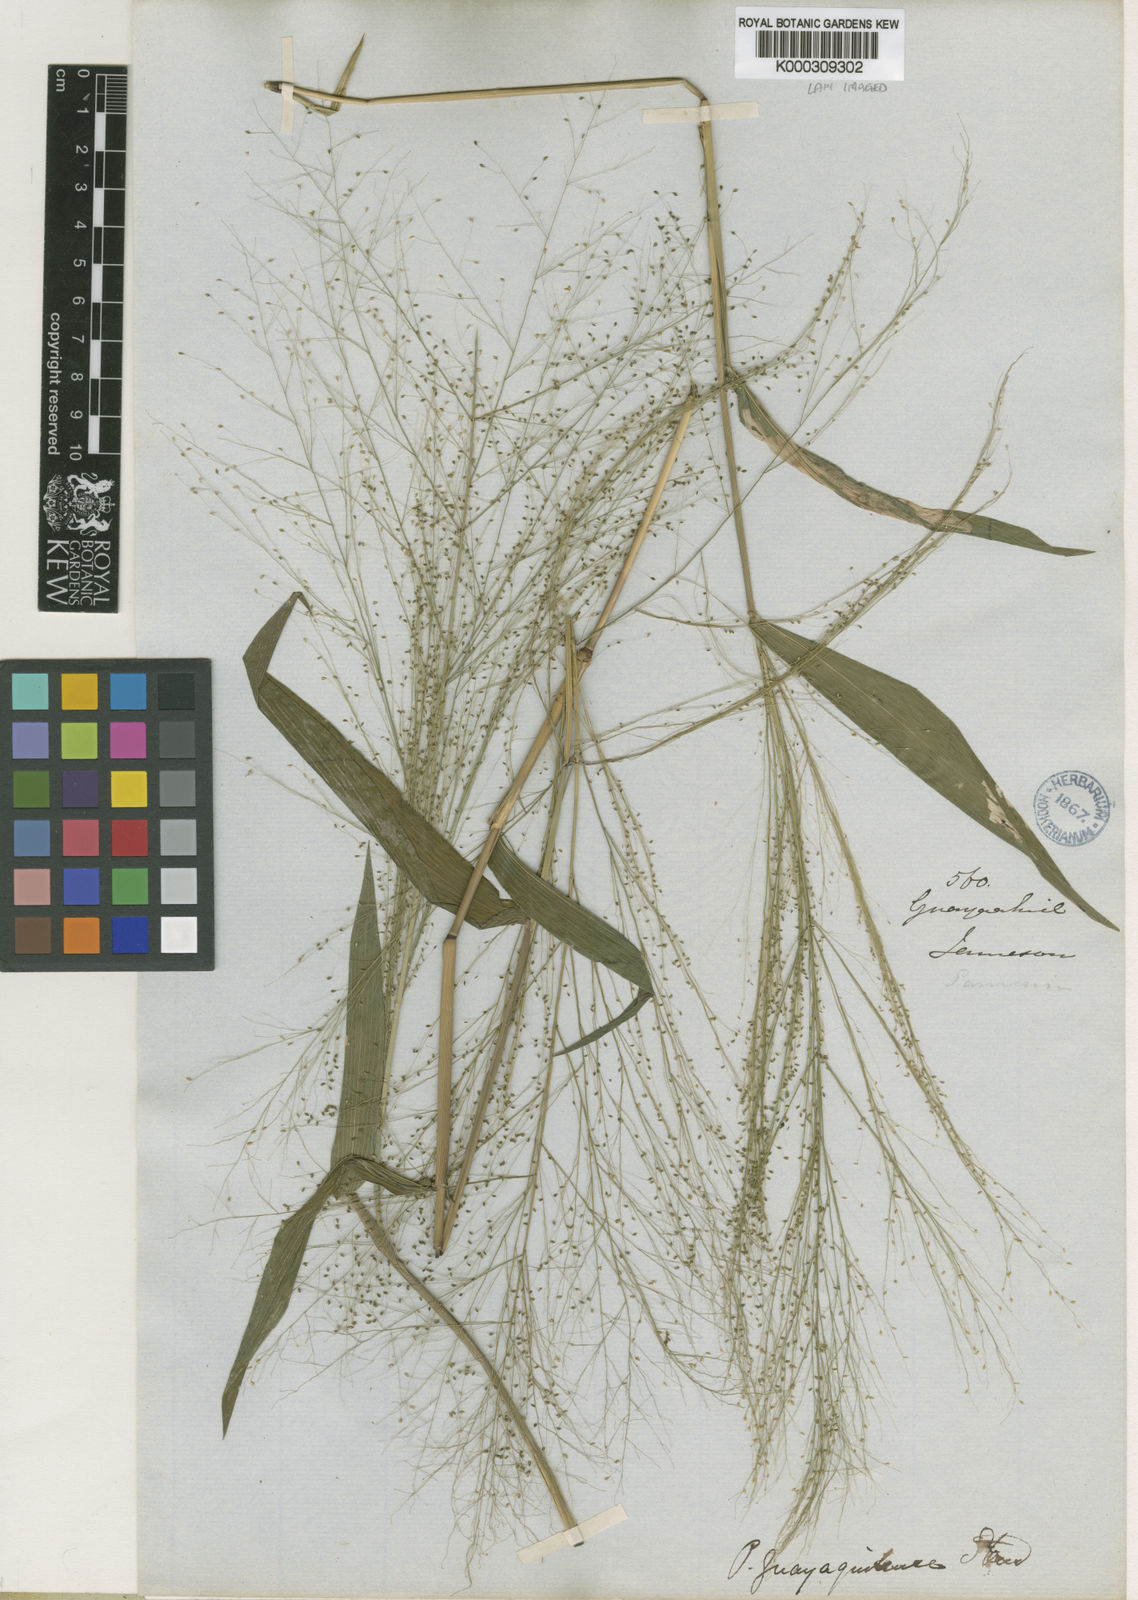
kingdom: Plantae
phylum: Tracheophyta
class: Liliopsida
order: Poales
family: Poaceae
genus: Panicum
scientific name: Panicum trichanthum
